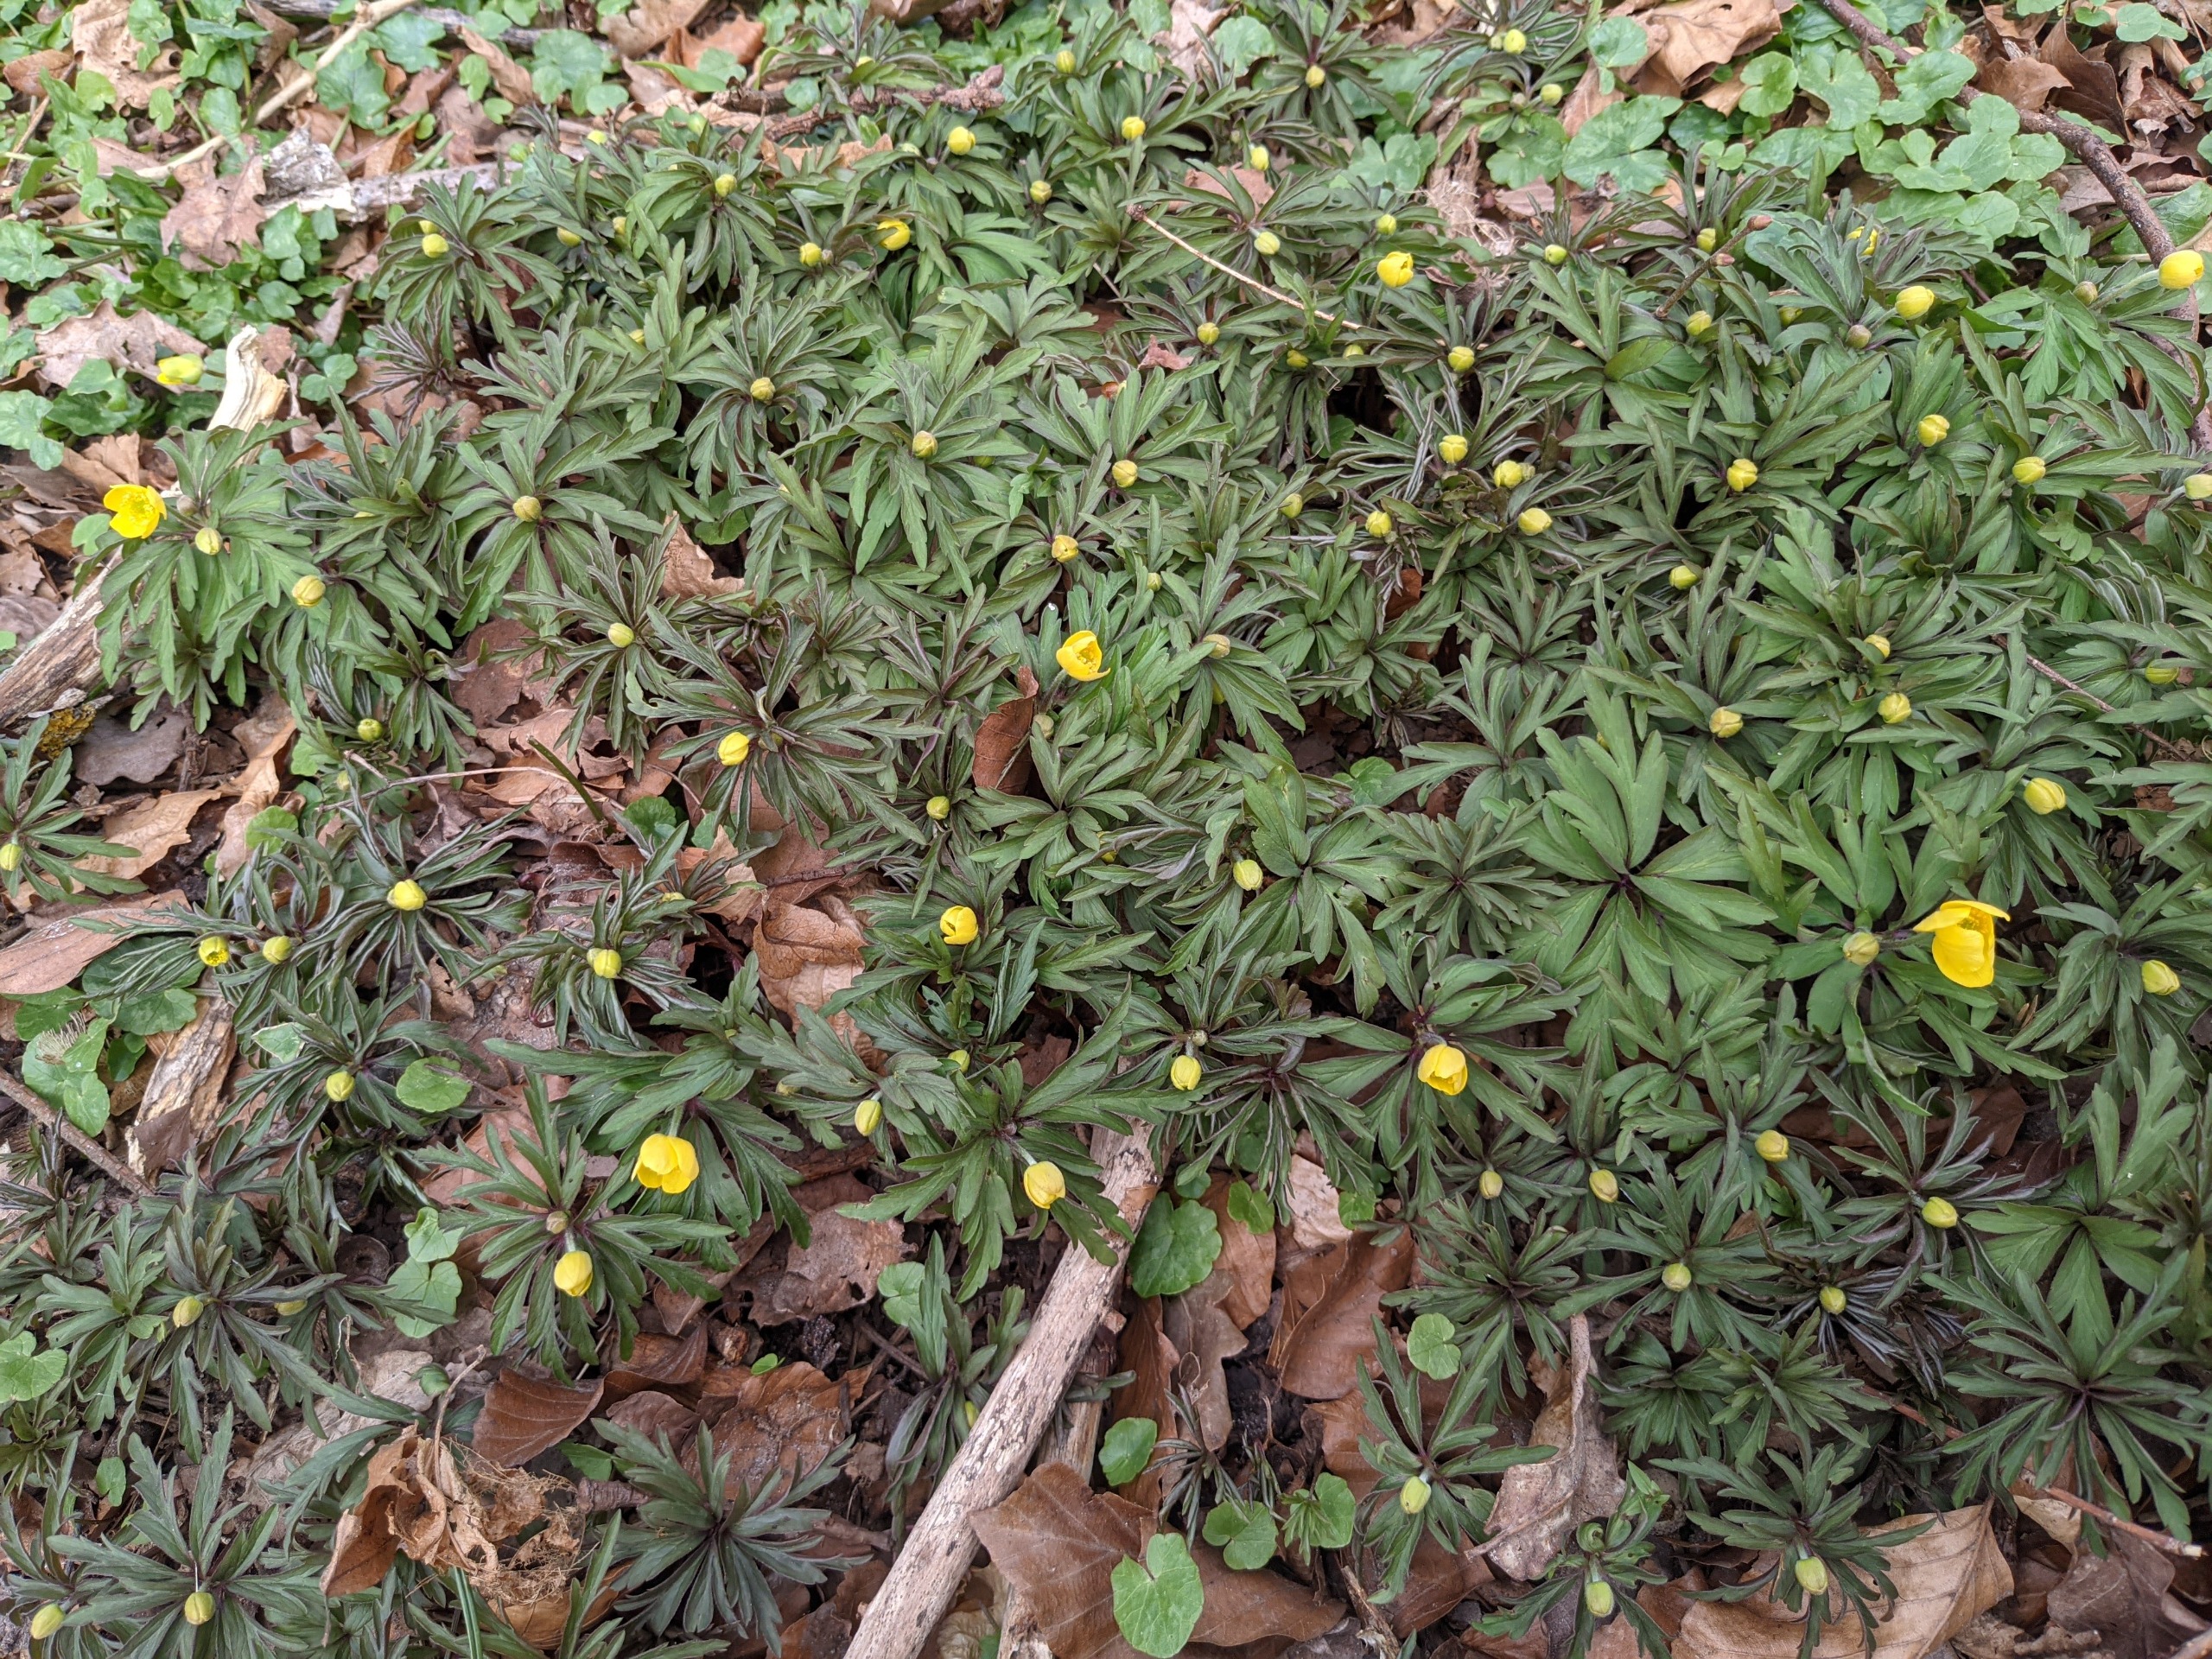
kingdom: Plantae
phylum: Tracheophyta
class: Magnoliopsida
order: Ranunculales
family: Ranunculaceae
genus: Anemone
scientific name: Anemone ranunculoides
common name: Gul anemone
